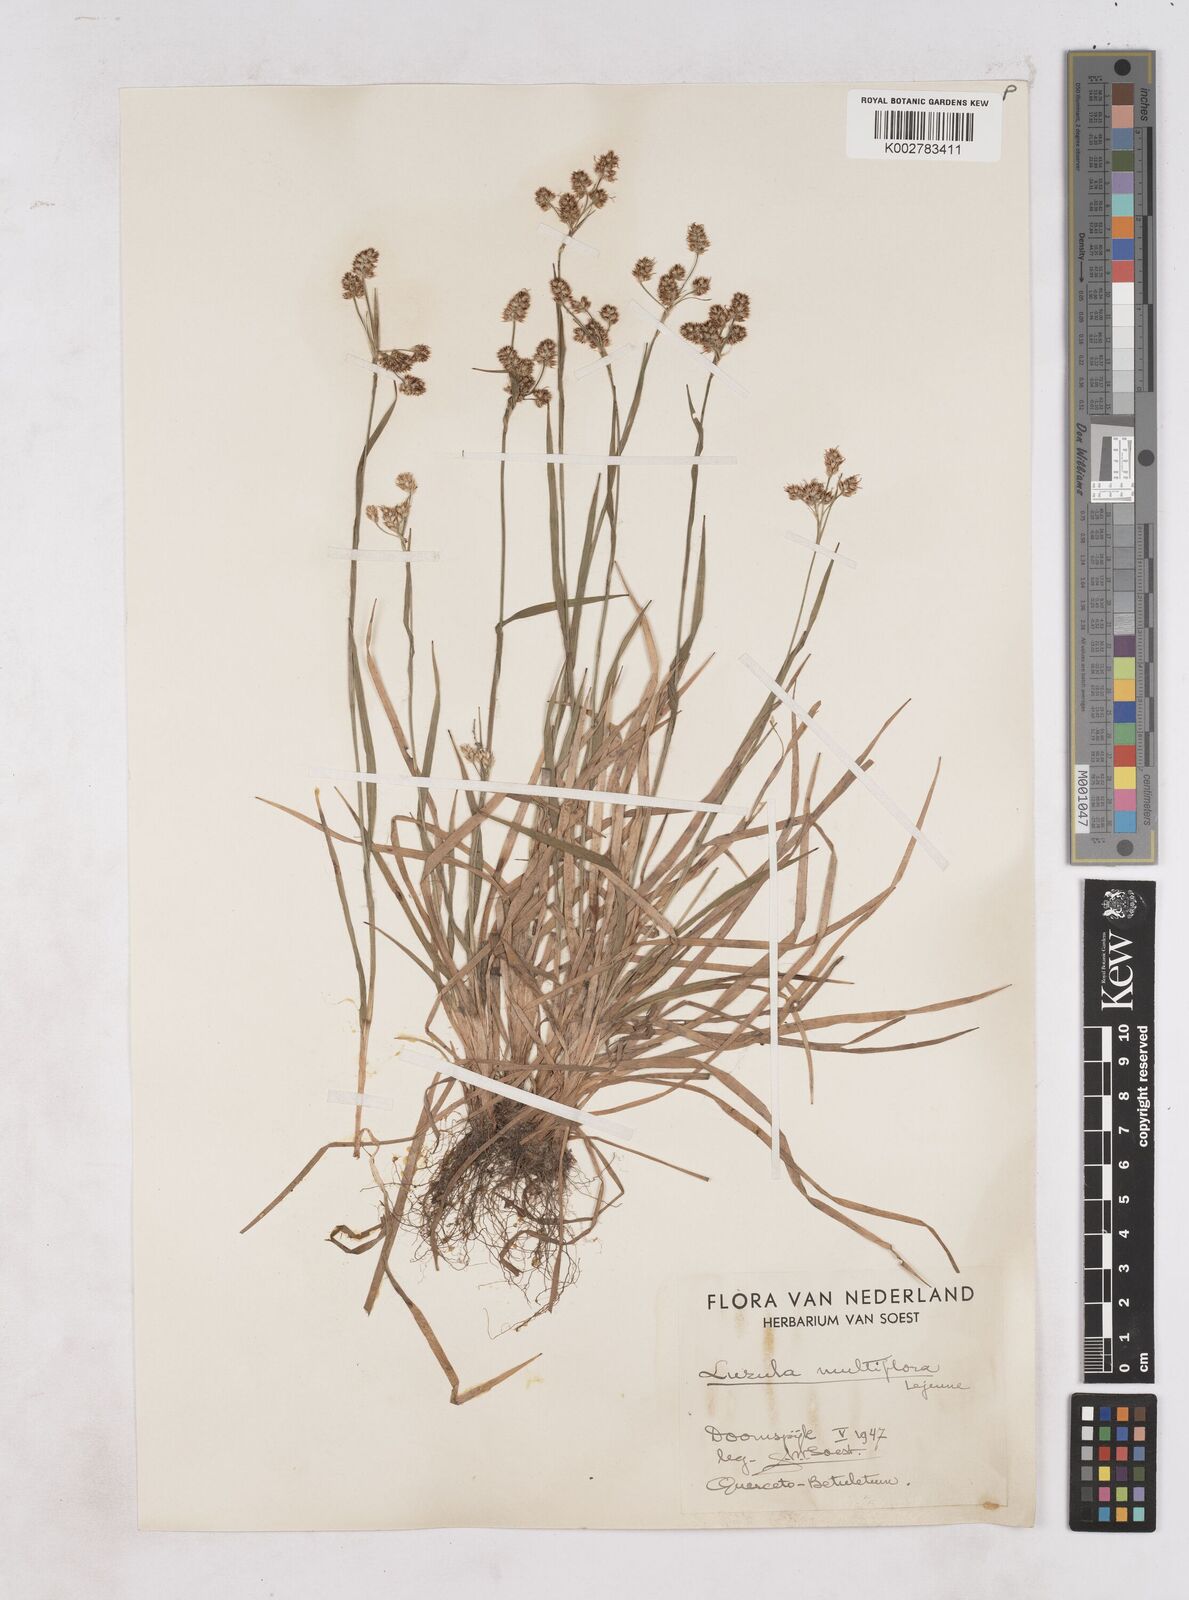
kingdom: Plantae
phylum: Tracheophyta
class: Liliopsida
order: Poales
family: Juncaceae
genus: Luzula
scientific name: Luzula multiflora
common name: Heath wood-rush
